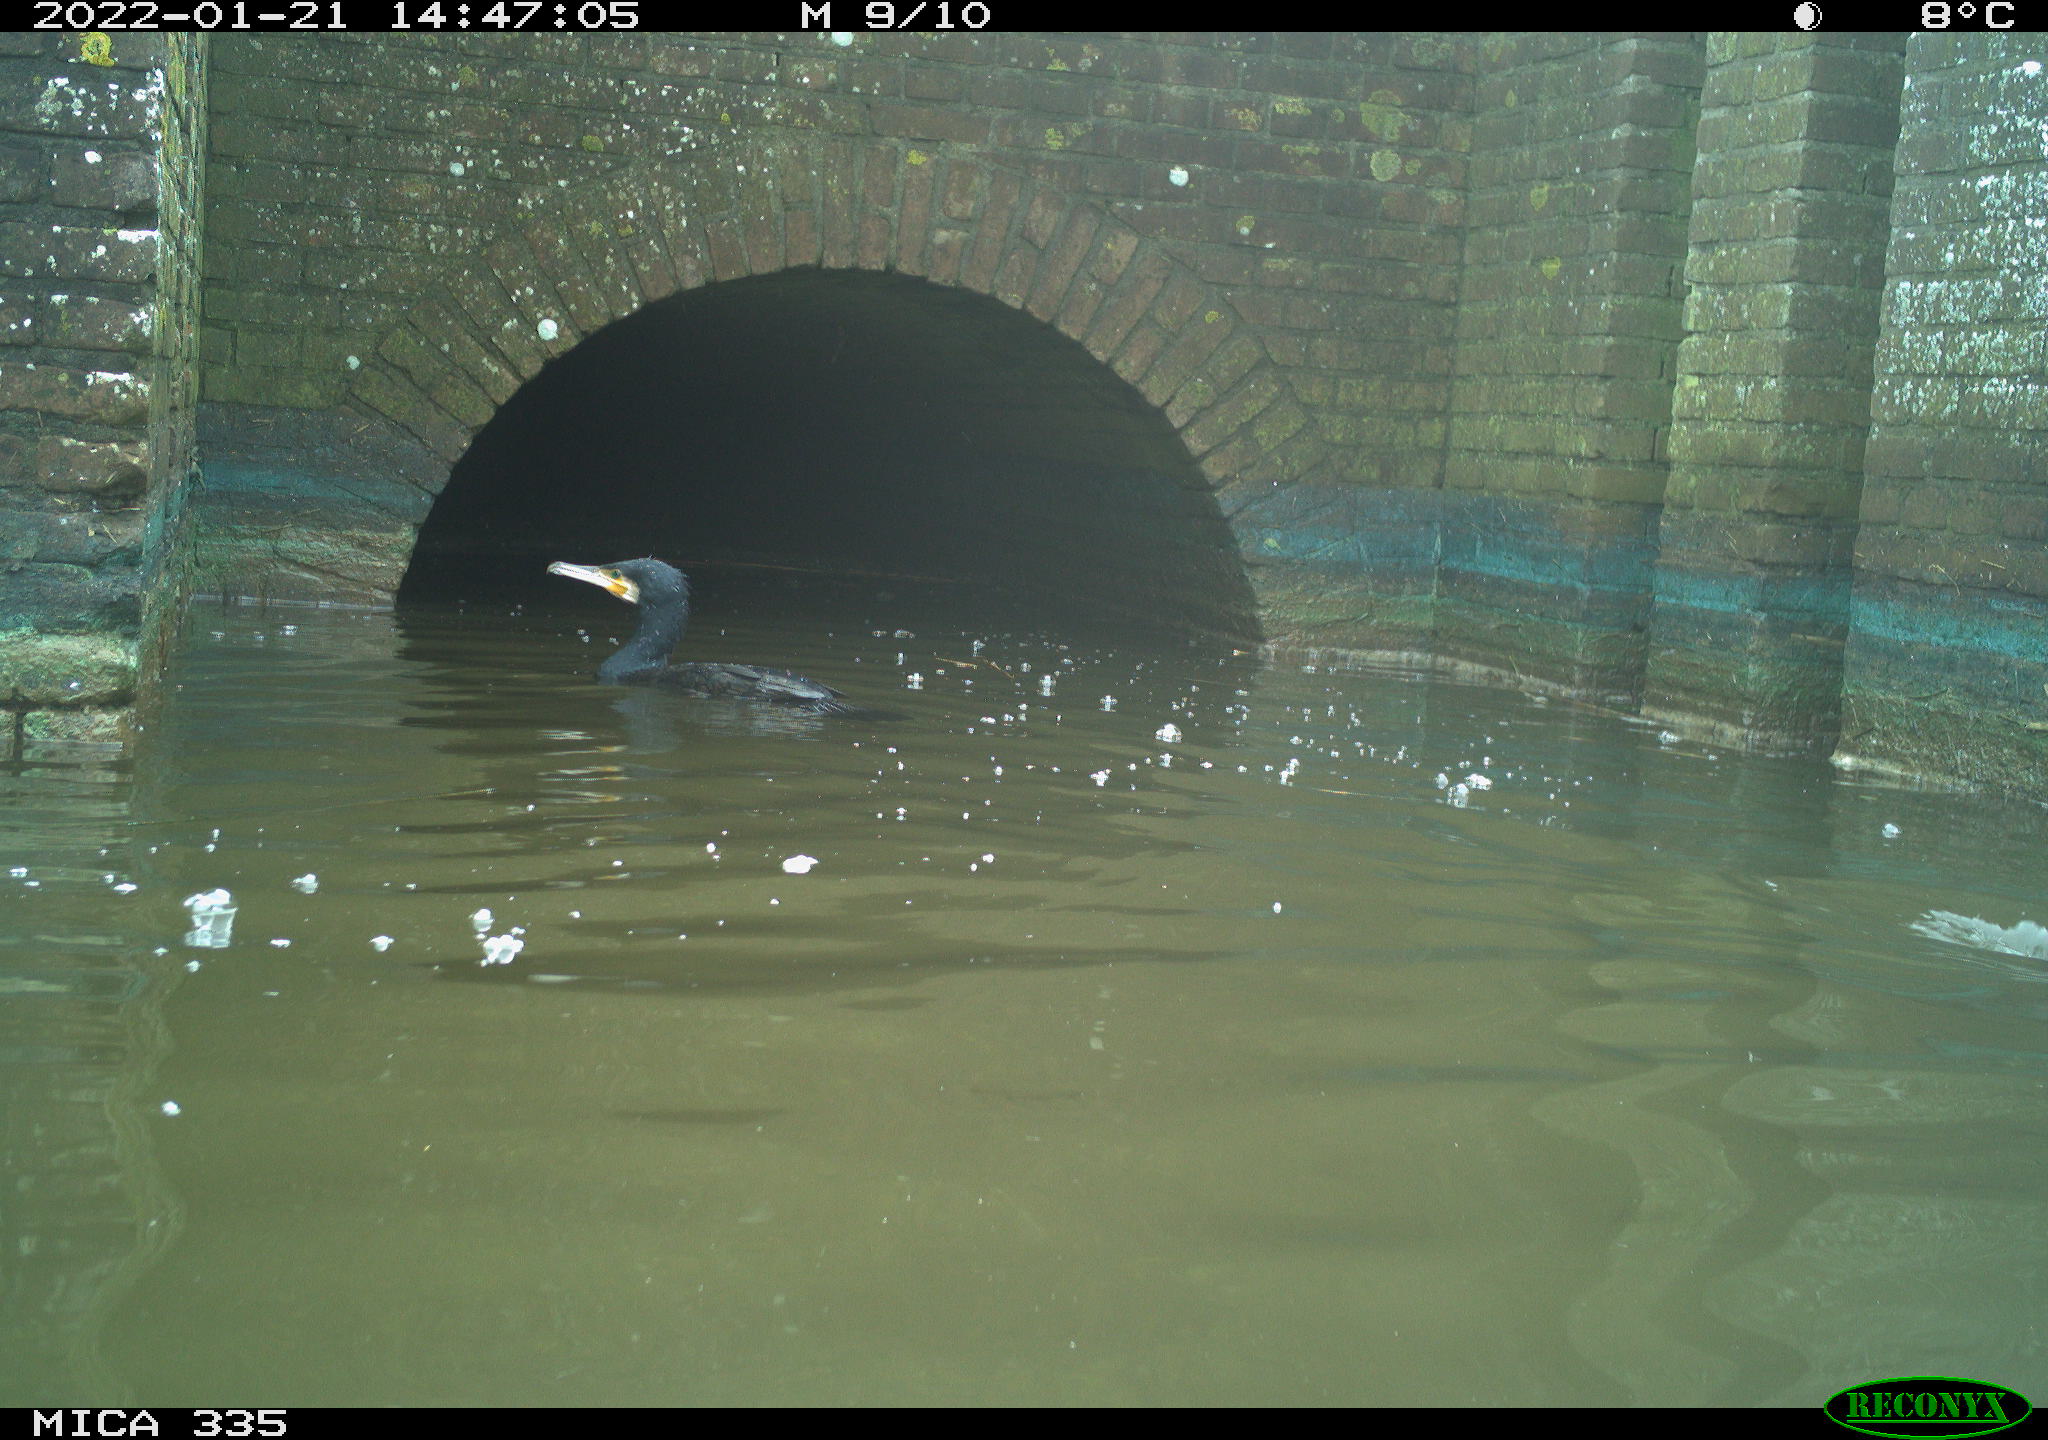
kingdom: Animalia
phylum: Chordata
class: Aves
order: Suliformes
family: Phalacrocoracidae
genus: Phalacrocorax
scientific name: Phalacrocorax carbo
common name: Great cormorant
